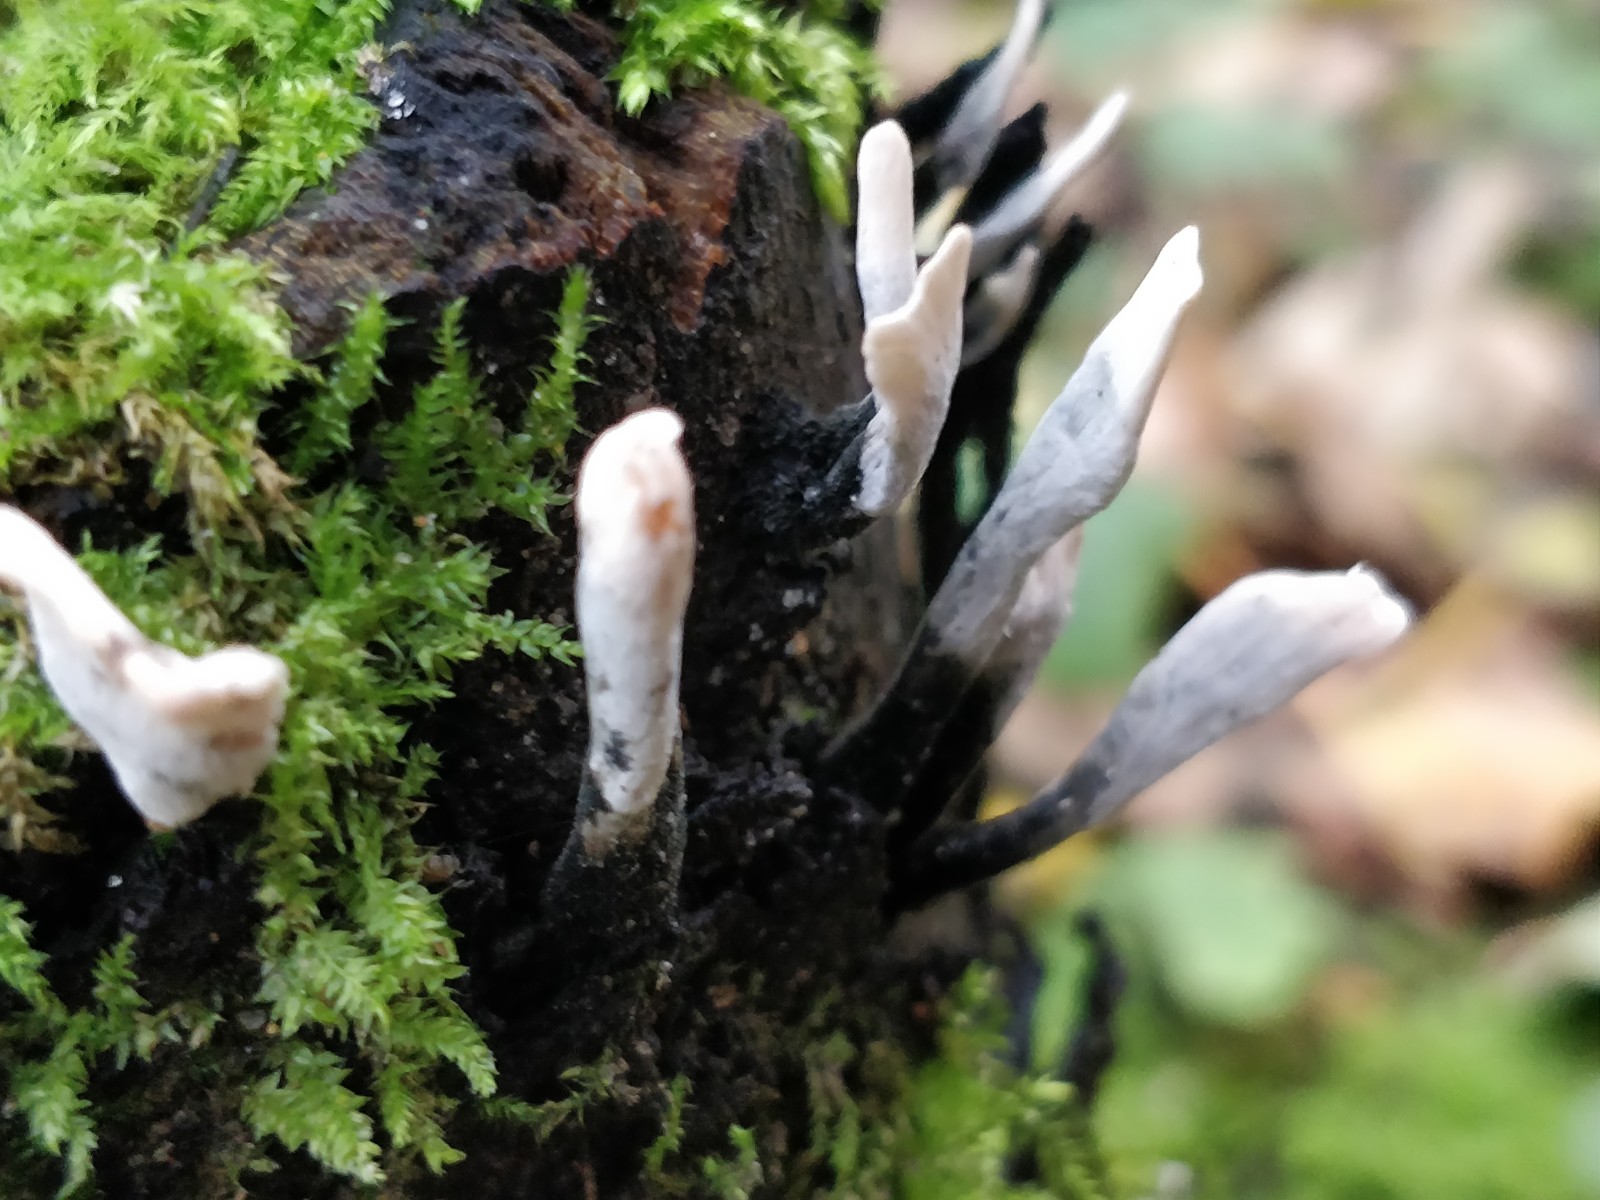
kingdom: Fungi
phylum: Ascomycota
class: Sordariomycetes
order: Xylariales
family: Xylariaceae
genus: Xylaria
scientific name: Xylaria hypoxylon
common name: grenet stødsvamp
